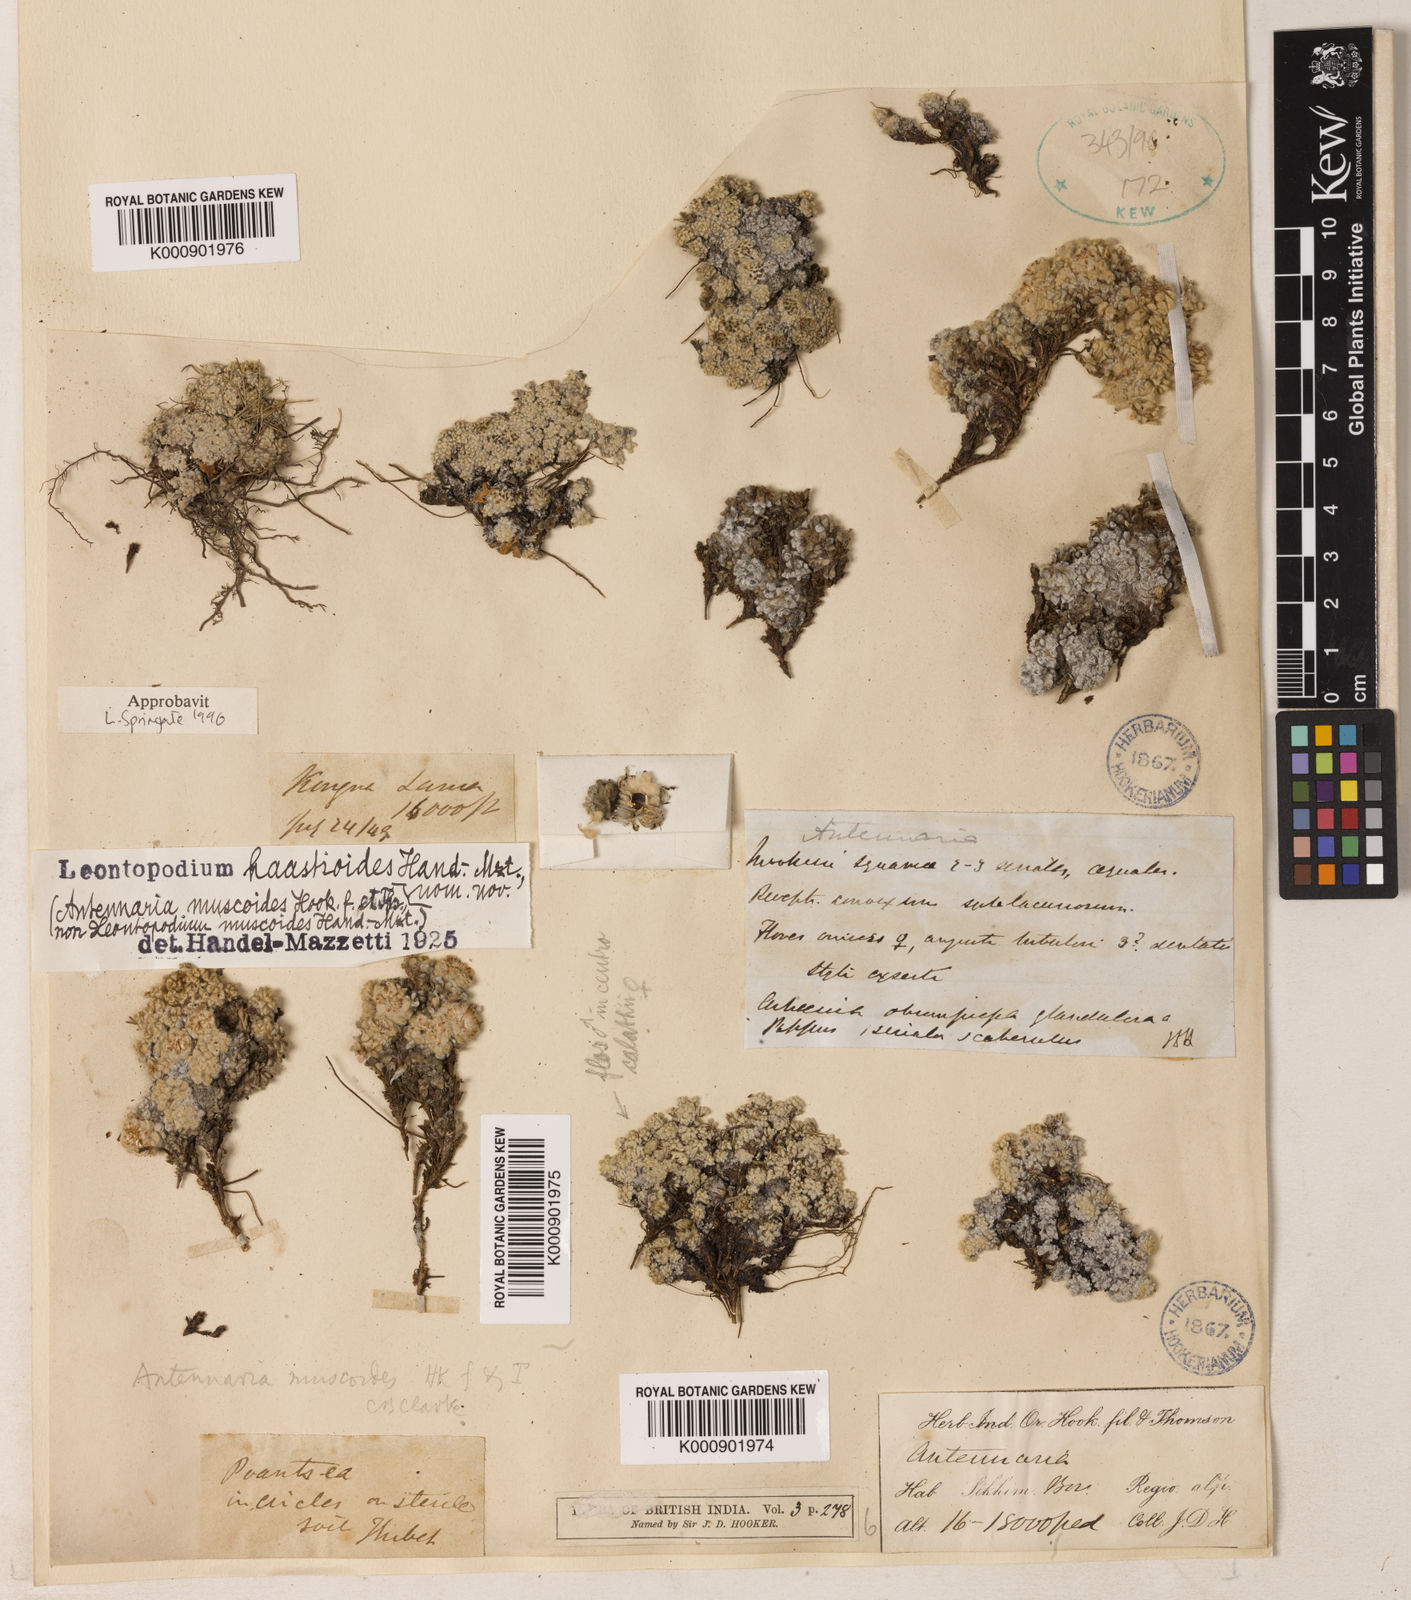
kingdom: Plantae
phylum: Tracheophyta
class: Magnoliopsida
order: Asterales
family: Asteraceae
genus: Leontopodium
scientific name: Leontopodium haastioides
